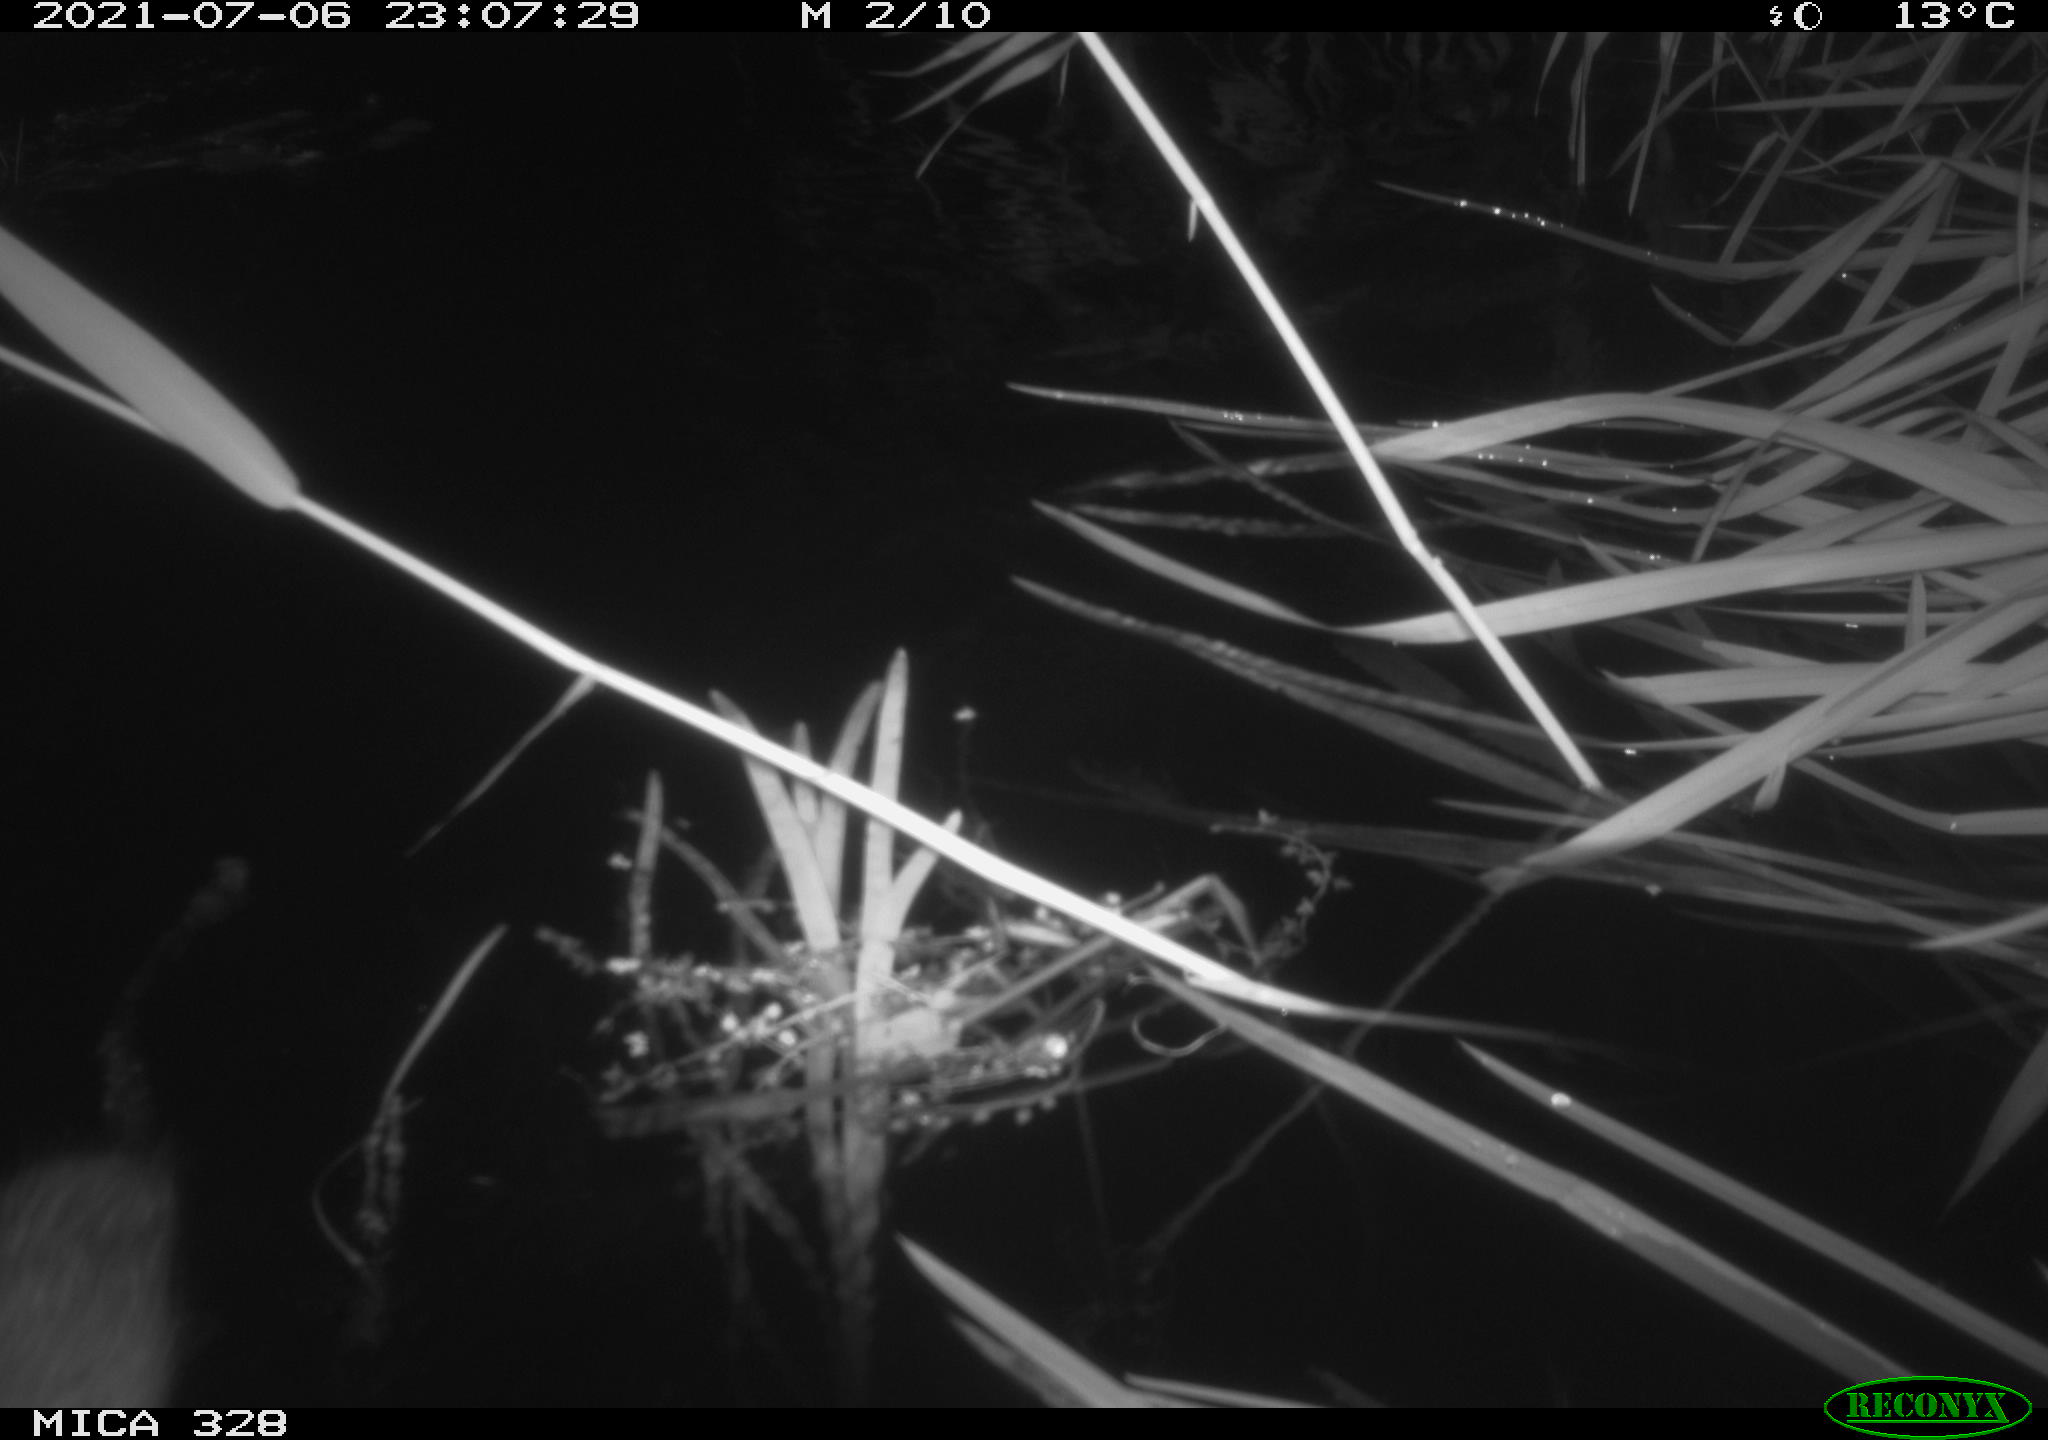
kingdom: Animalia
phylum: Chordata
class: Mammalia
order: Rodentia
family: Cricetidae
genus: Ondatra
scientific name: Ondatra zibethicus
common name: Muskrat
